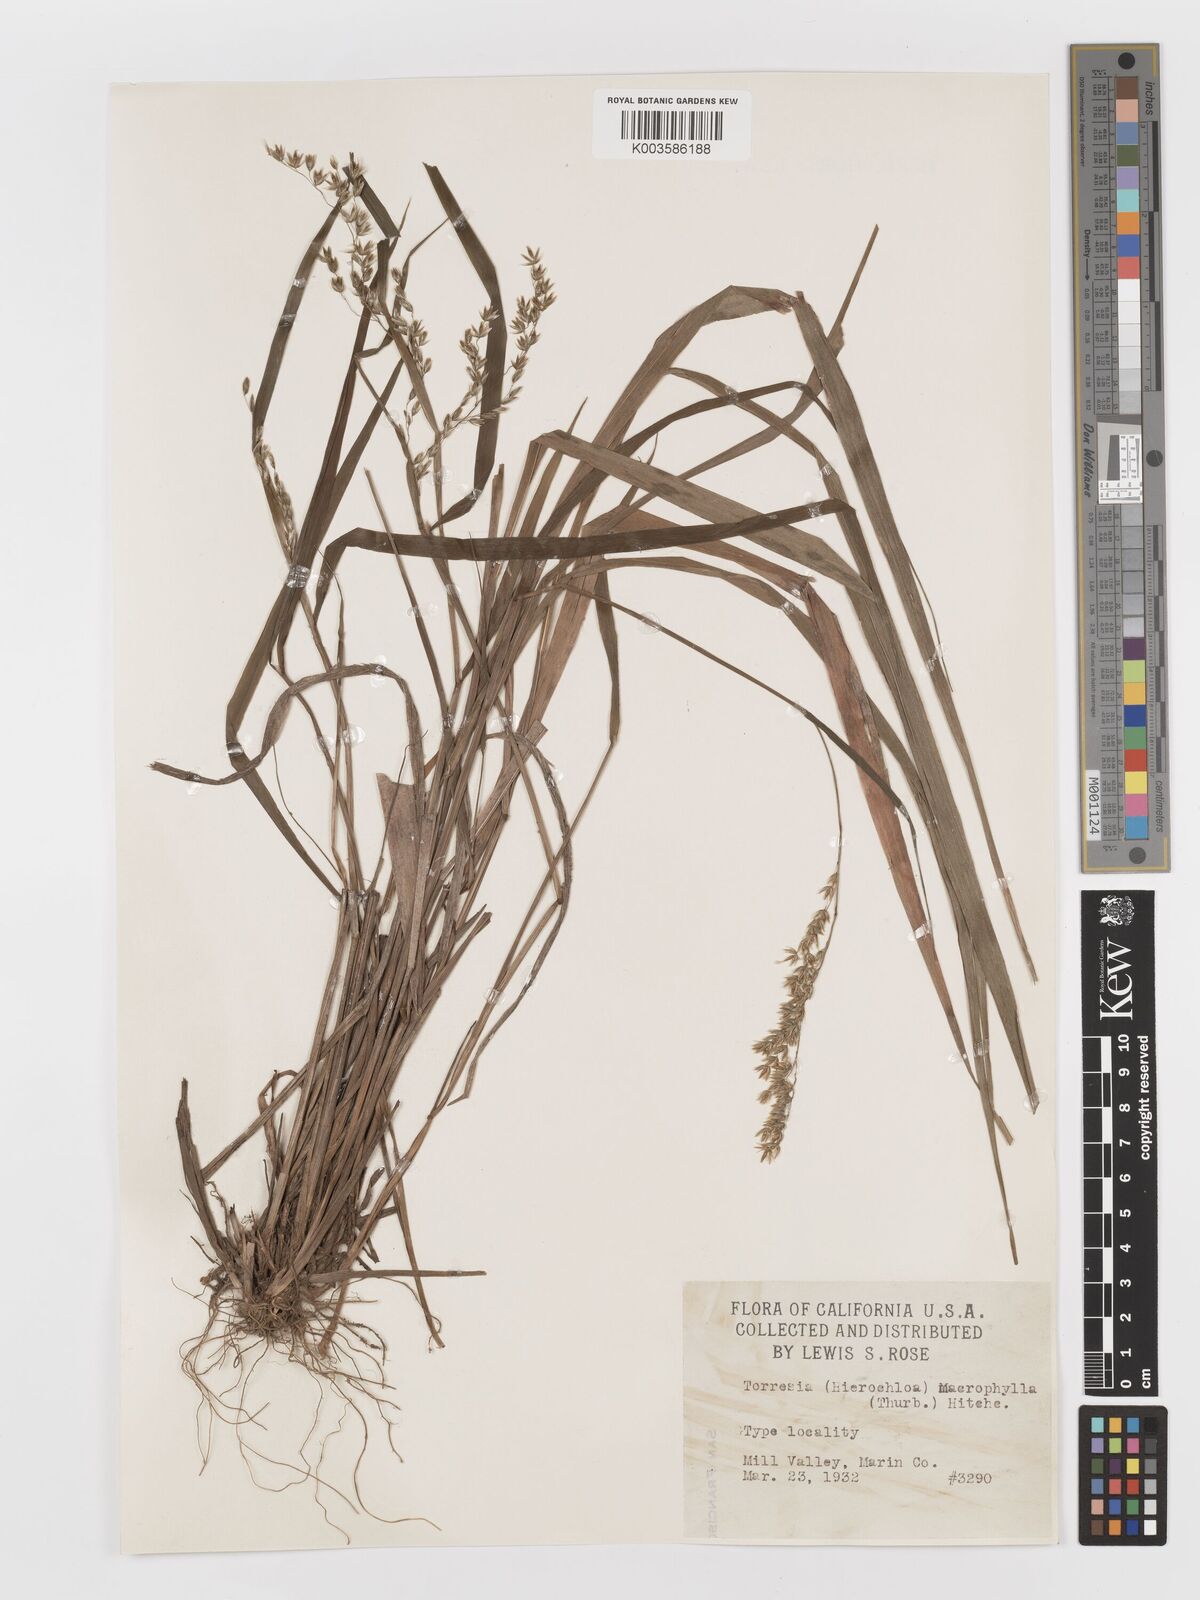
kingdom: Plantae
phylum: Tracheophyta
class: Liliopsida
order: Poales
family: Poaceae
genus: Anthoxanthum
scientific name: Anthoxanthum occidentale
